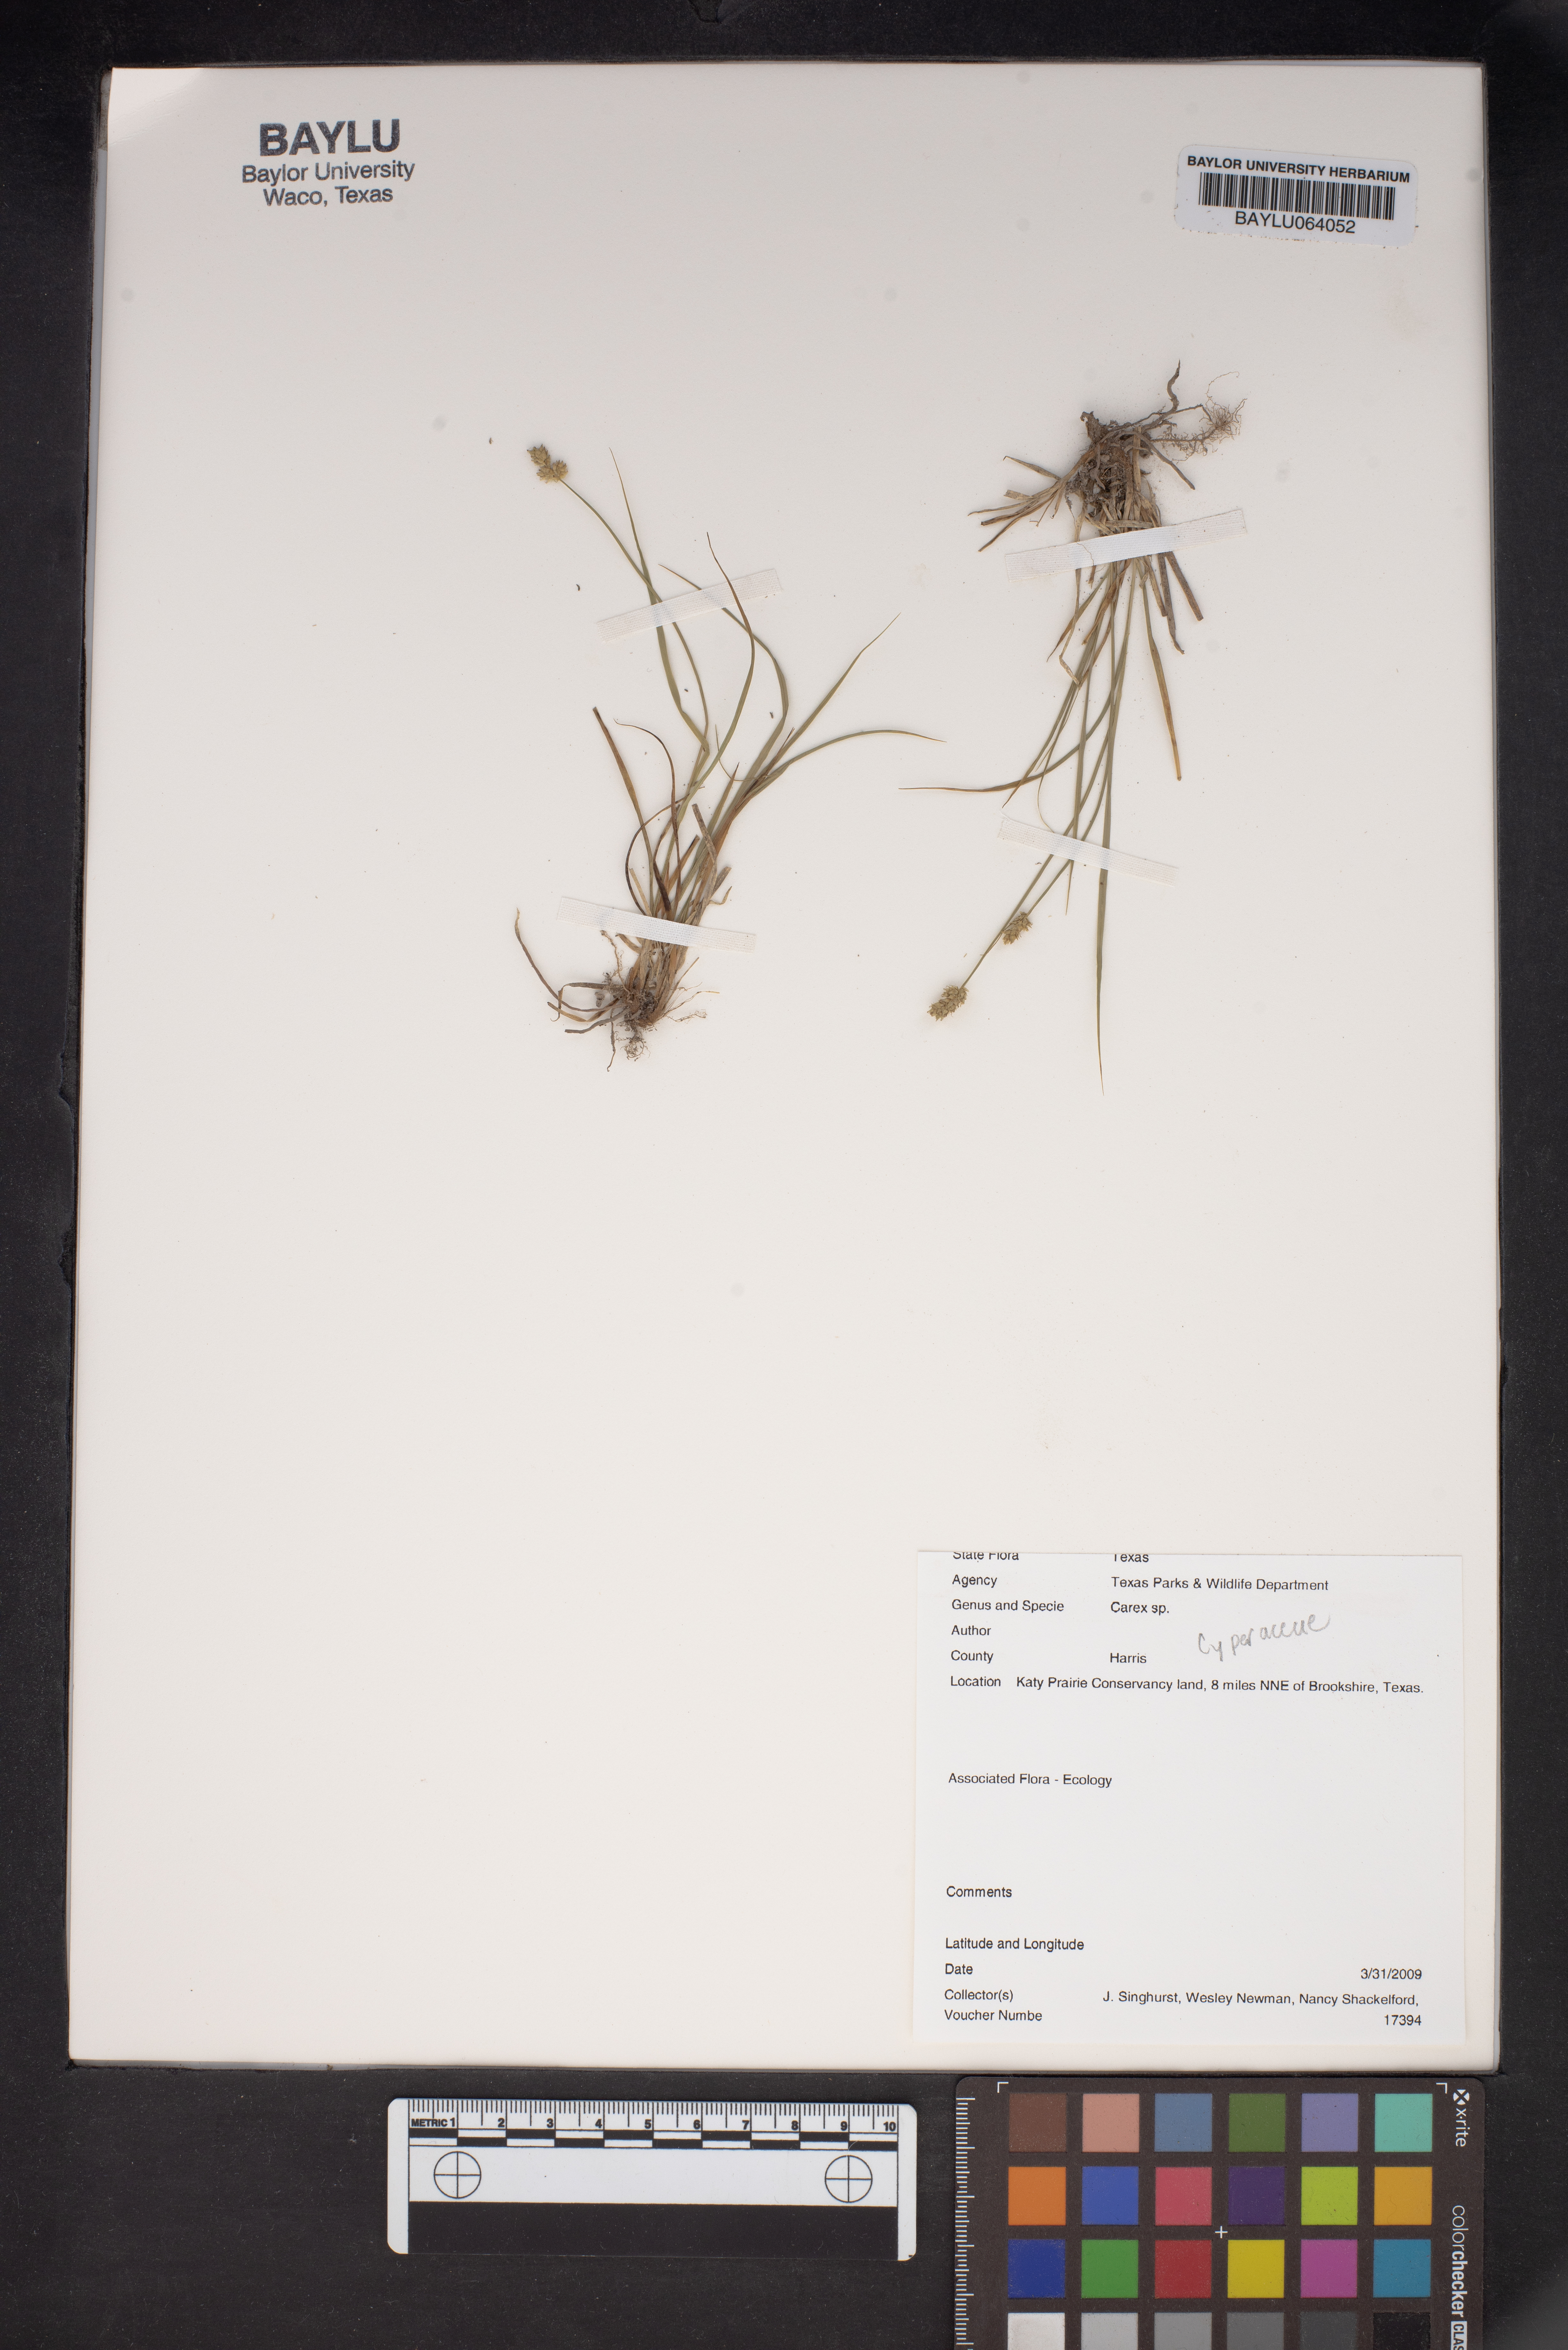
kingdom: Plantae
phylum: Tracheophyta
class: Liliopsida
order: Poales
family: Cyperaceae
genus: Carex
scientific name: Carex
